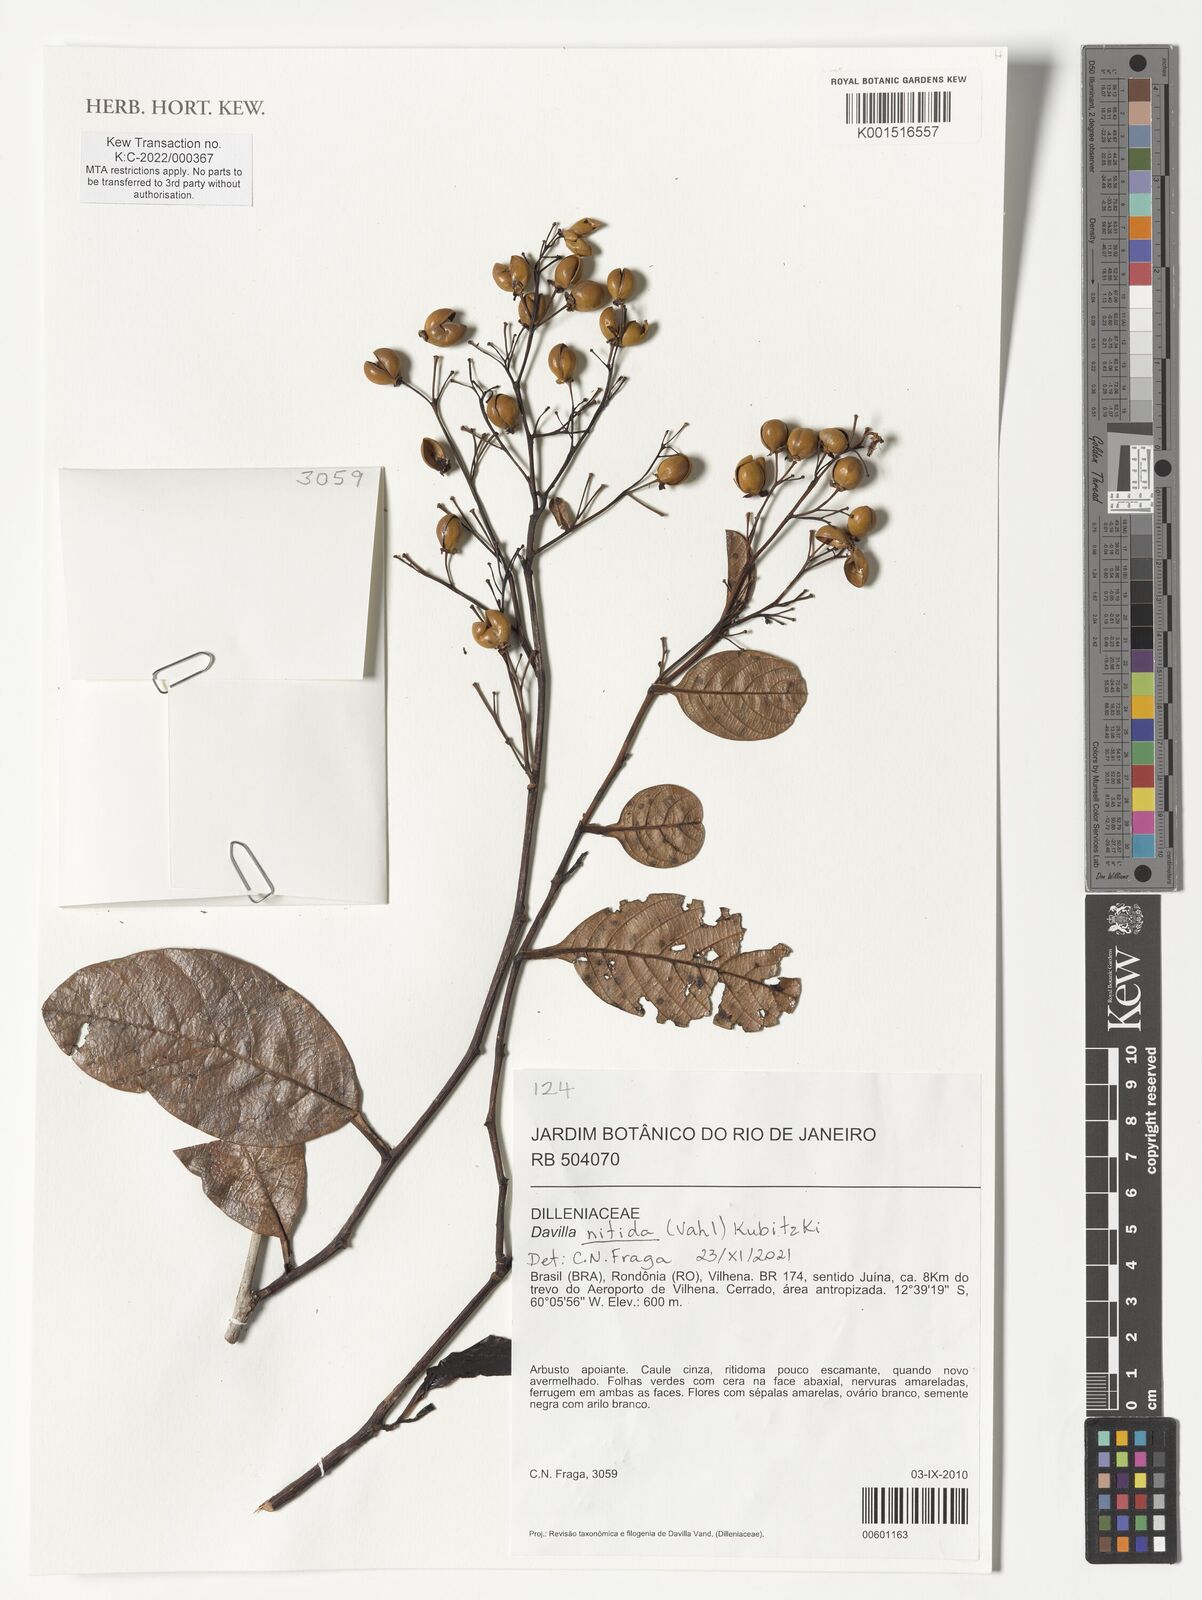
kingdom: Plantae
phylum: Tracheophyta
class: Magnoliopsida
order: Dilleniales
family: Dilleniaceae
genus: Davilla
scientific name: Davilla nitida
